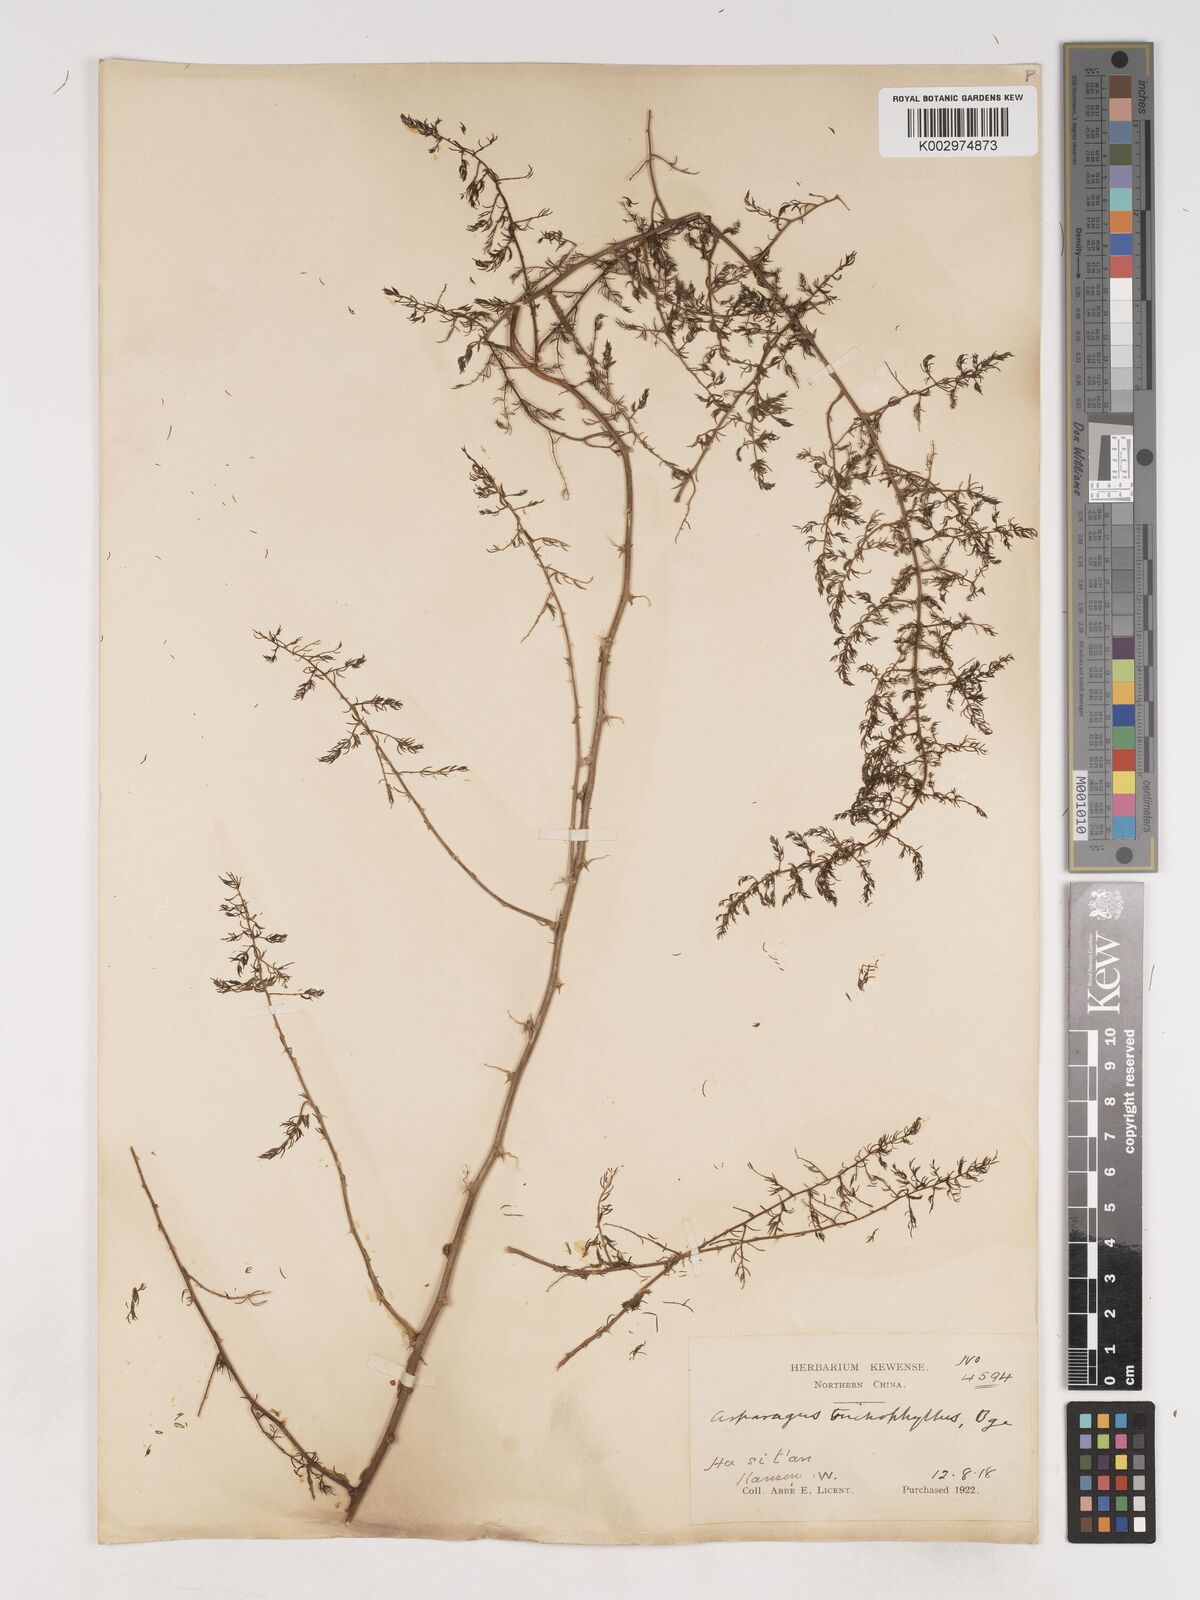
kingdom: Plantae
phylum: Tracheophyta
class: Liliopsida
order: Asparagales
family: Asparagaceae
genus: Asparagus
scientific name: Asparagus trichophyllus
